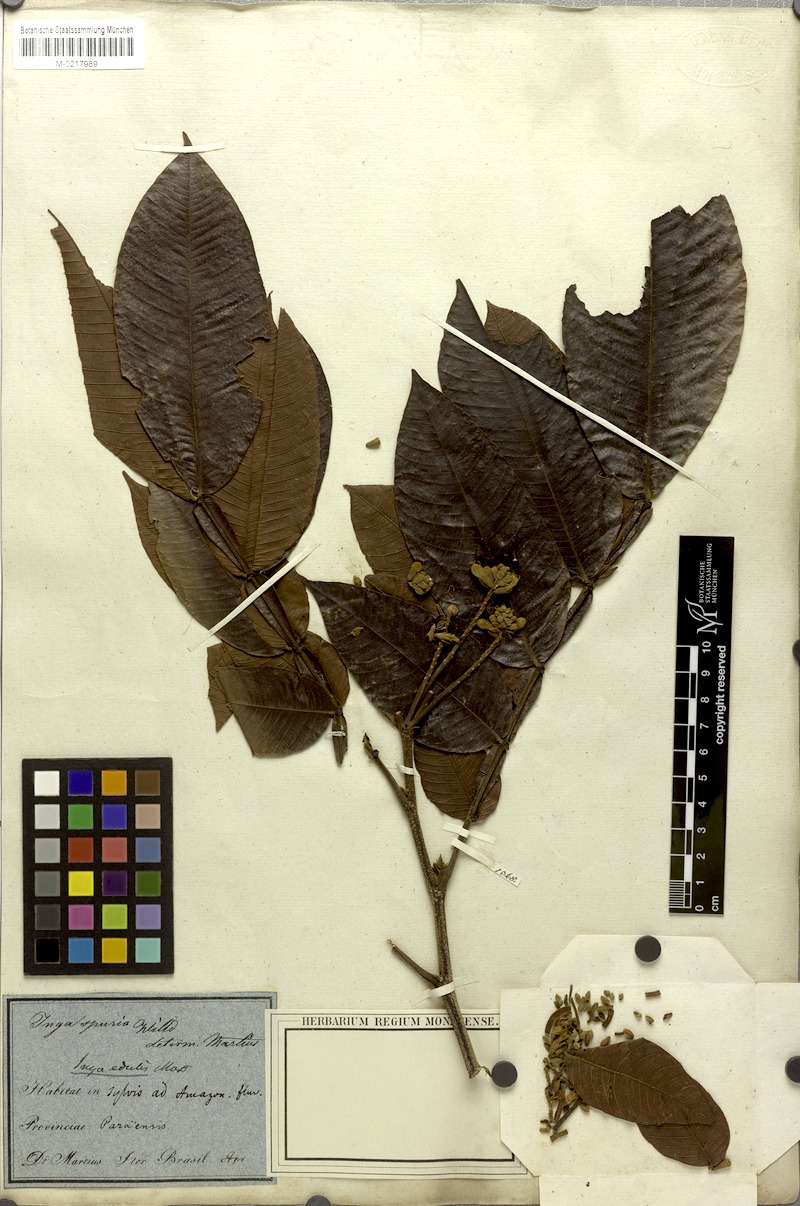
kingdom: Plantae
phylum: Tracheophyta
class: Magnoliopsida
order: Fabales
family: Fabaceae
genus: Inga
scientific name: Inga edulis
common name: Ice cream bean
